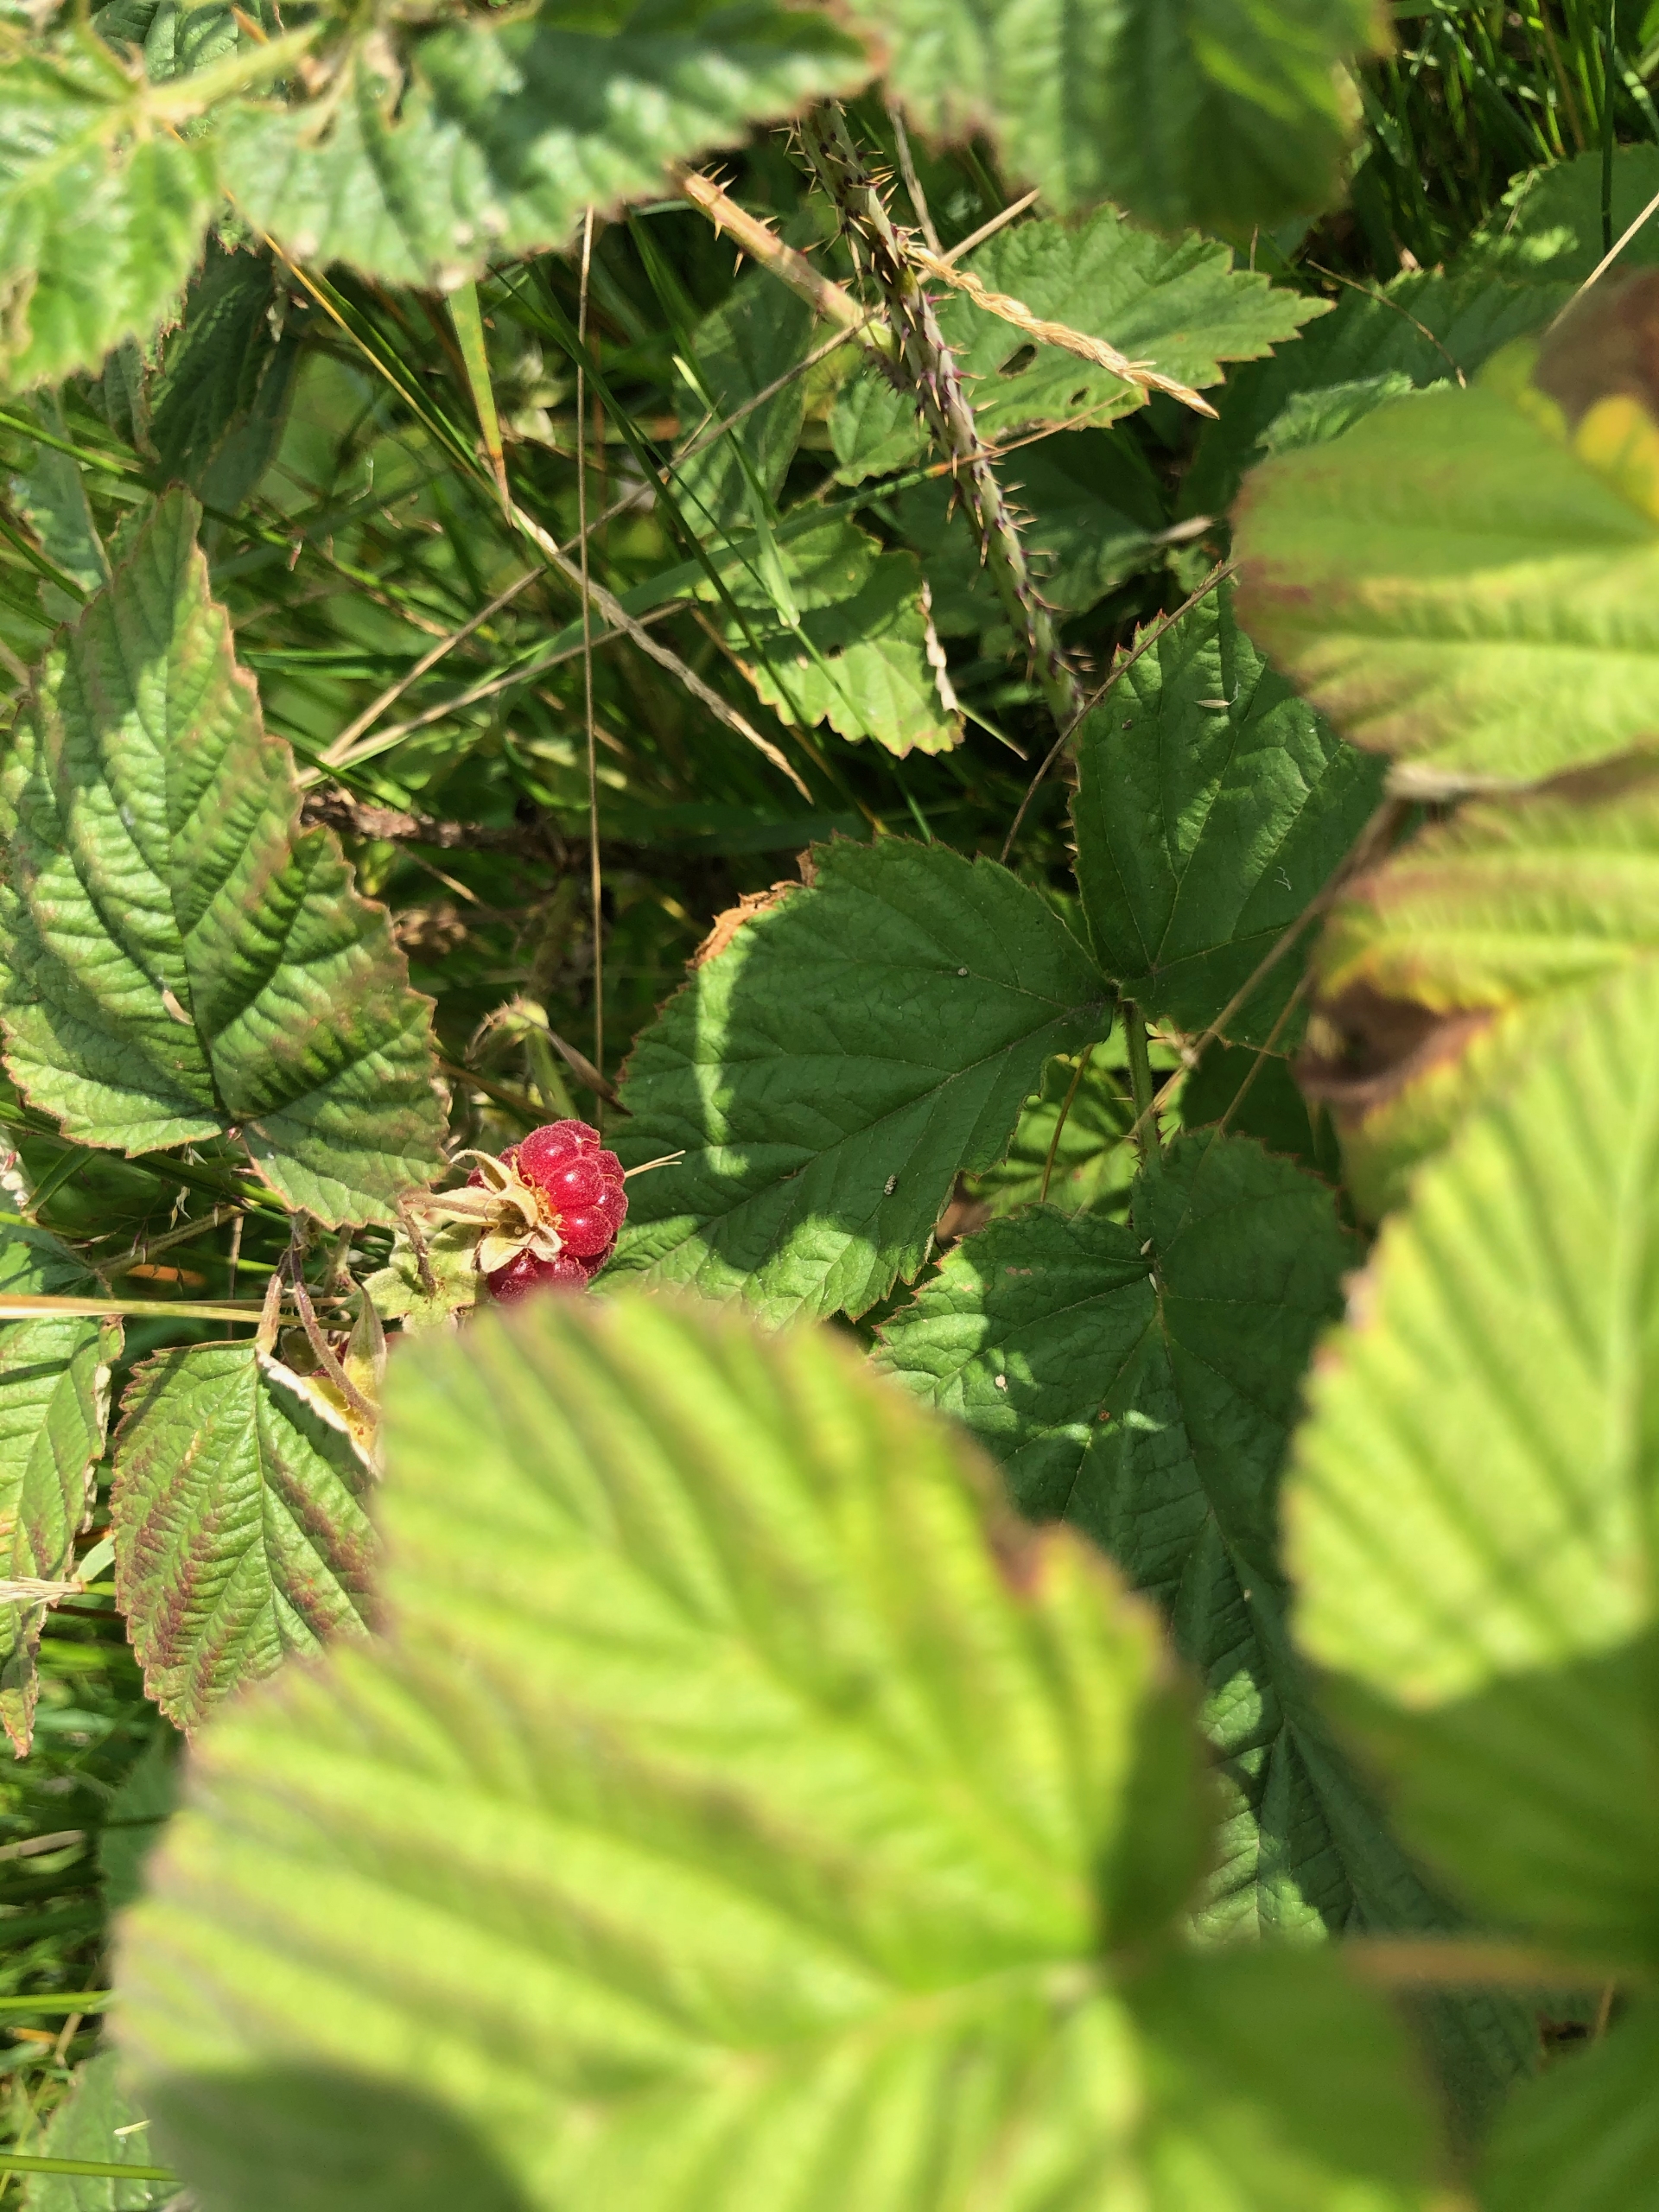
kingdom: Plantae
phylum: Tracheophyta
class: Magnoliopsida
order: Rosales
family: Rosaceae
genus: Rubus
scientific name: Rubus idaeus
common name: Hindbær
